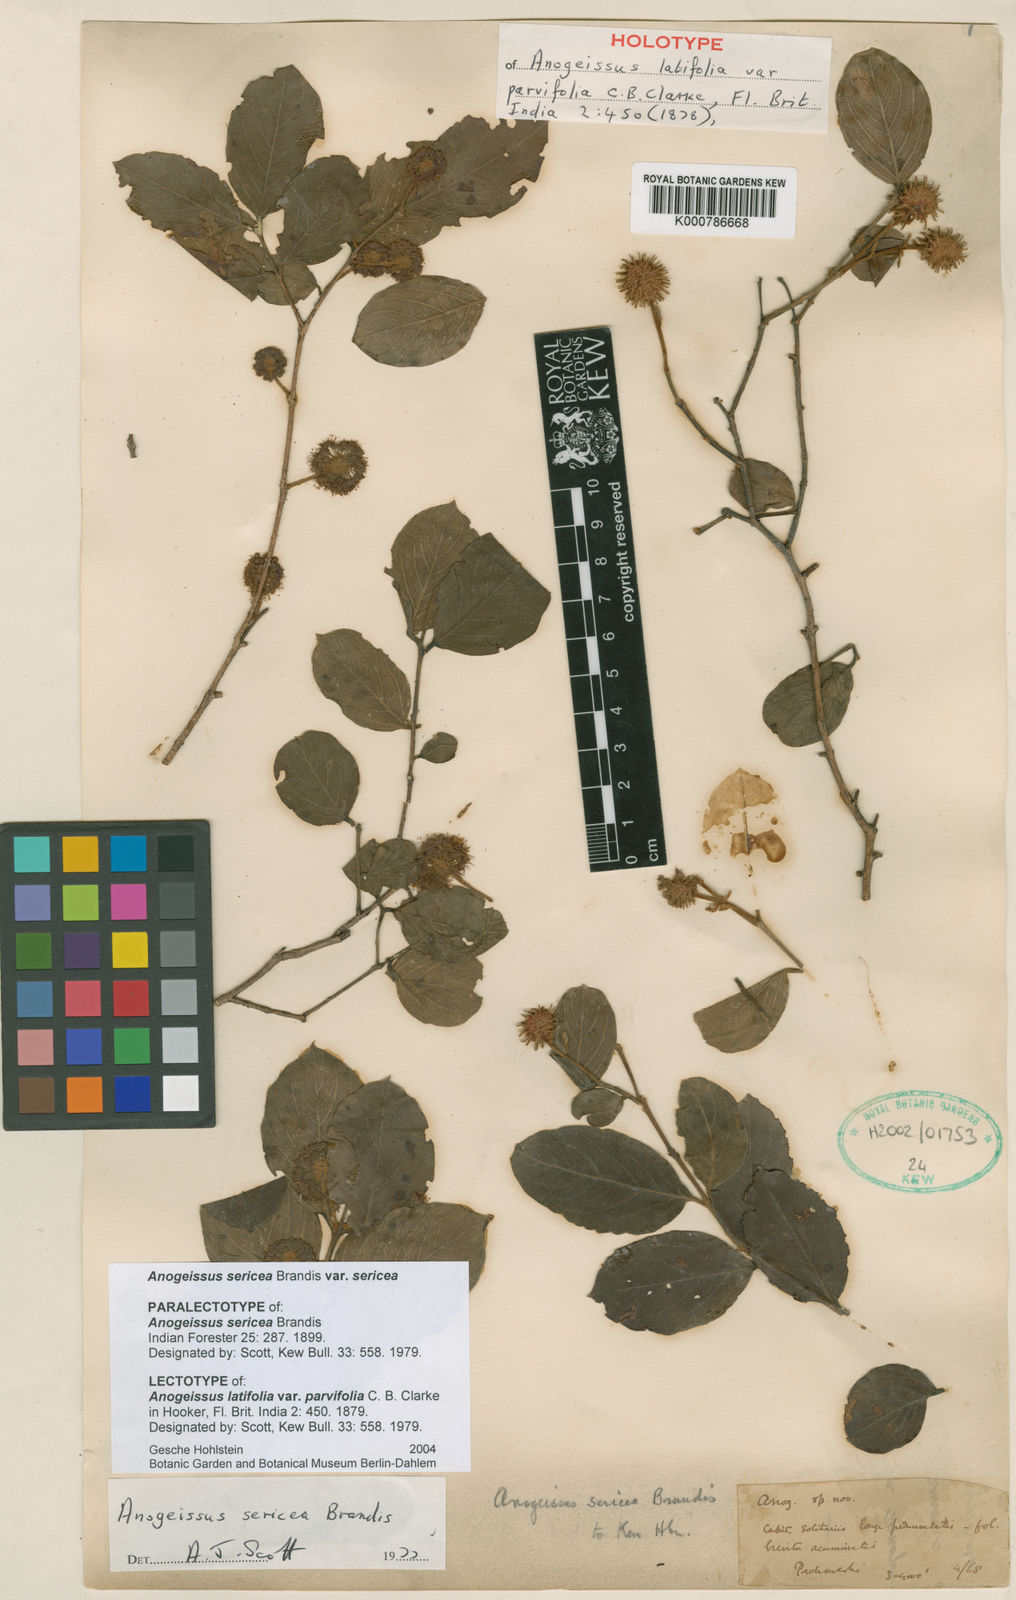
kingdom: Plantae
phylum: Tracheophyta
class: Magnoliopsida
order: Myrtales
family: Combretaceae
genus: Terminalia
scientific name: Terminalia coronata
